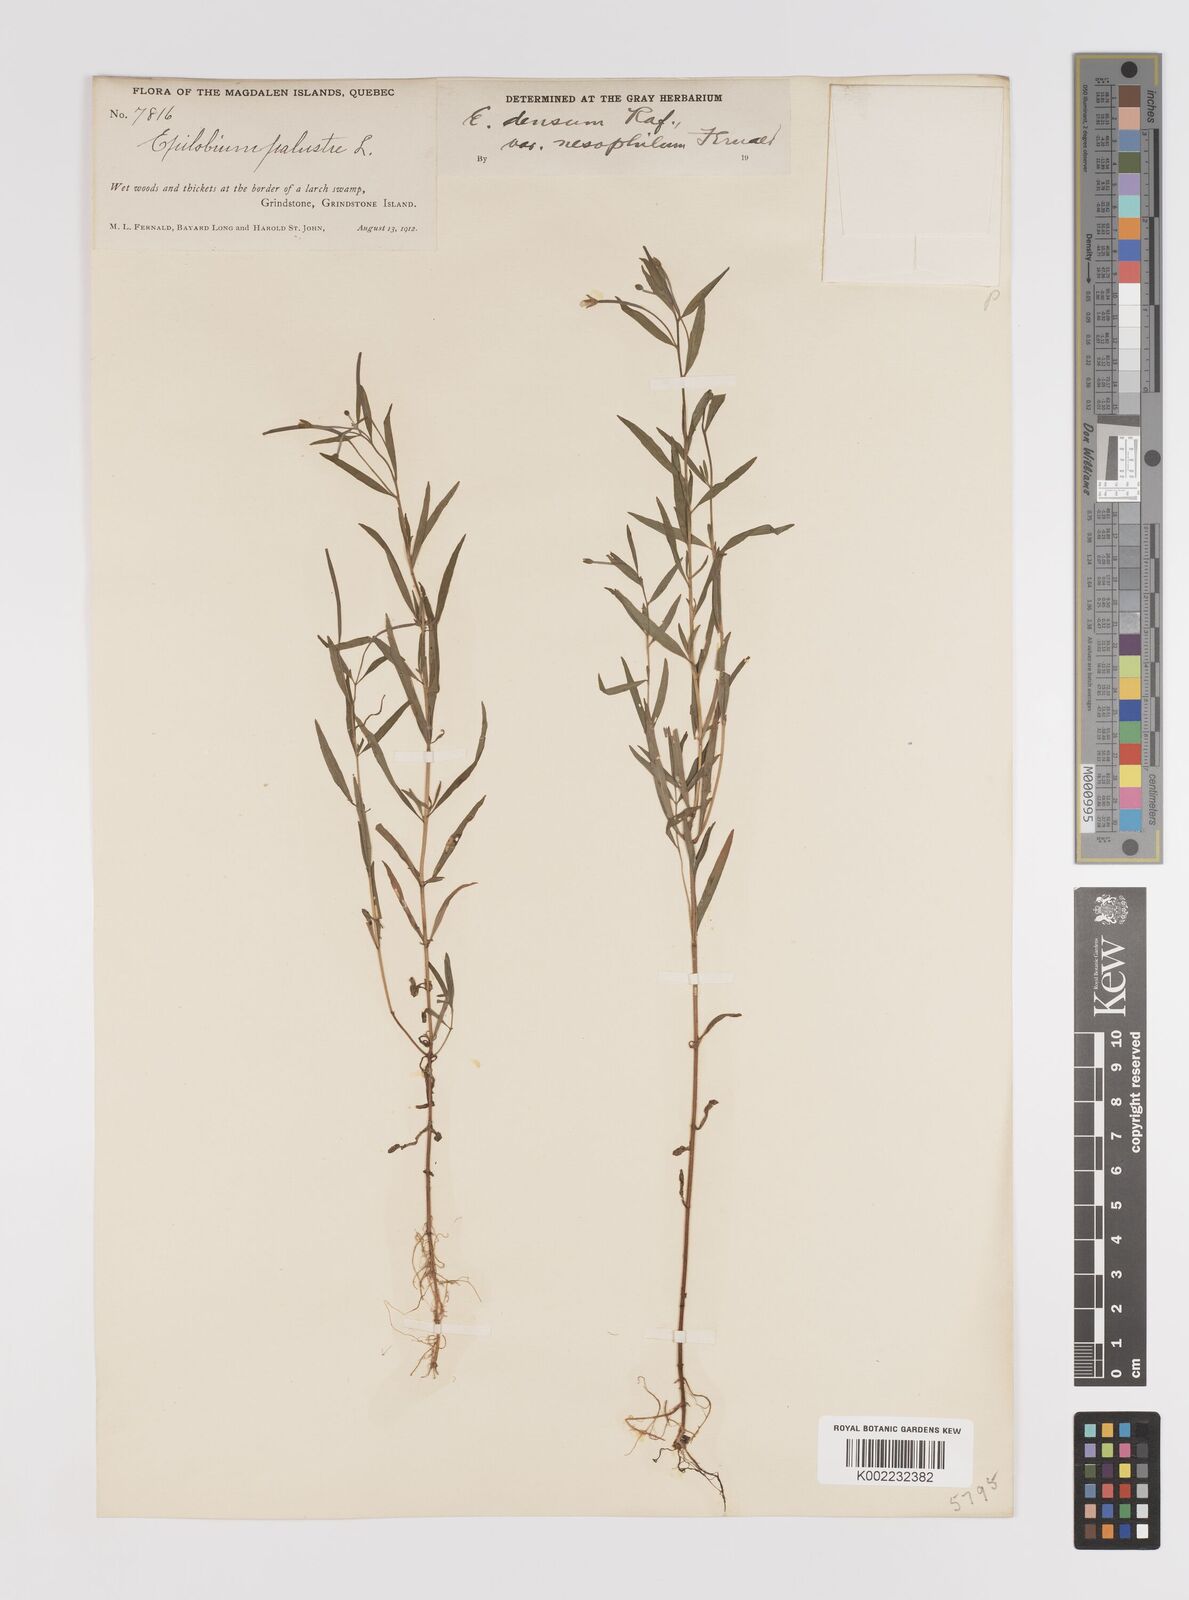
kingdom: Plantae
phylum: Tracheophyta
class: Magnoliopsida
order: Myrtales
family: Onagraceae
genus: Epilobium
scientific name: Epilobium palustre
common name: Marsh willowherb
